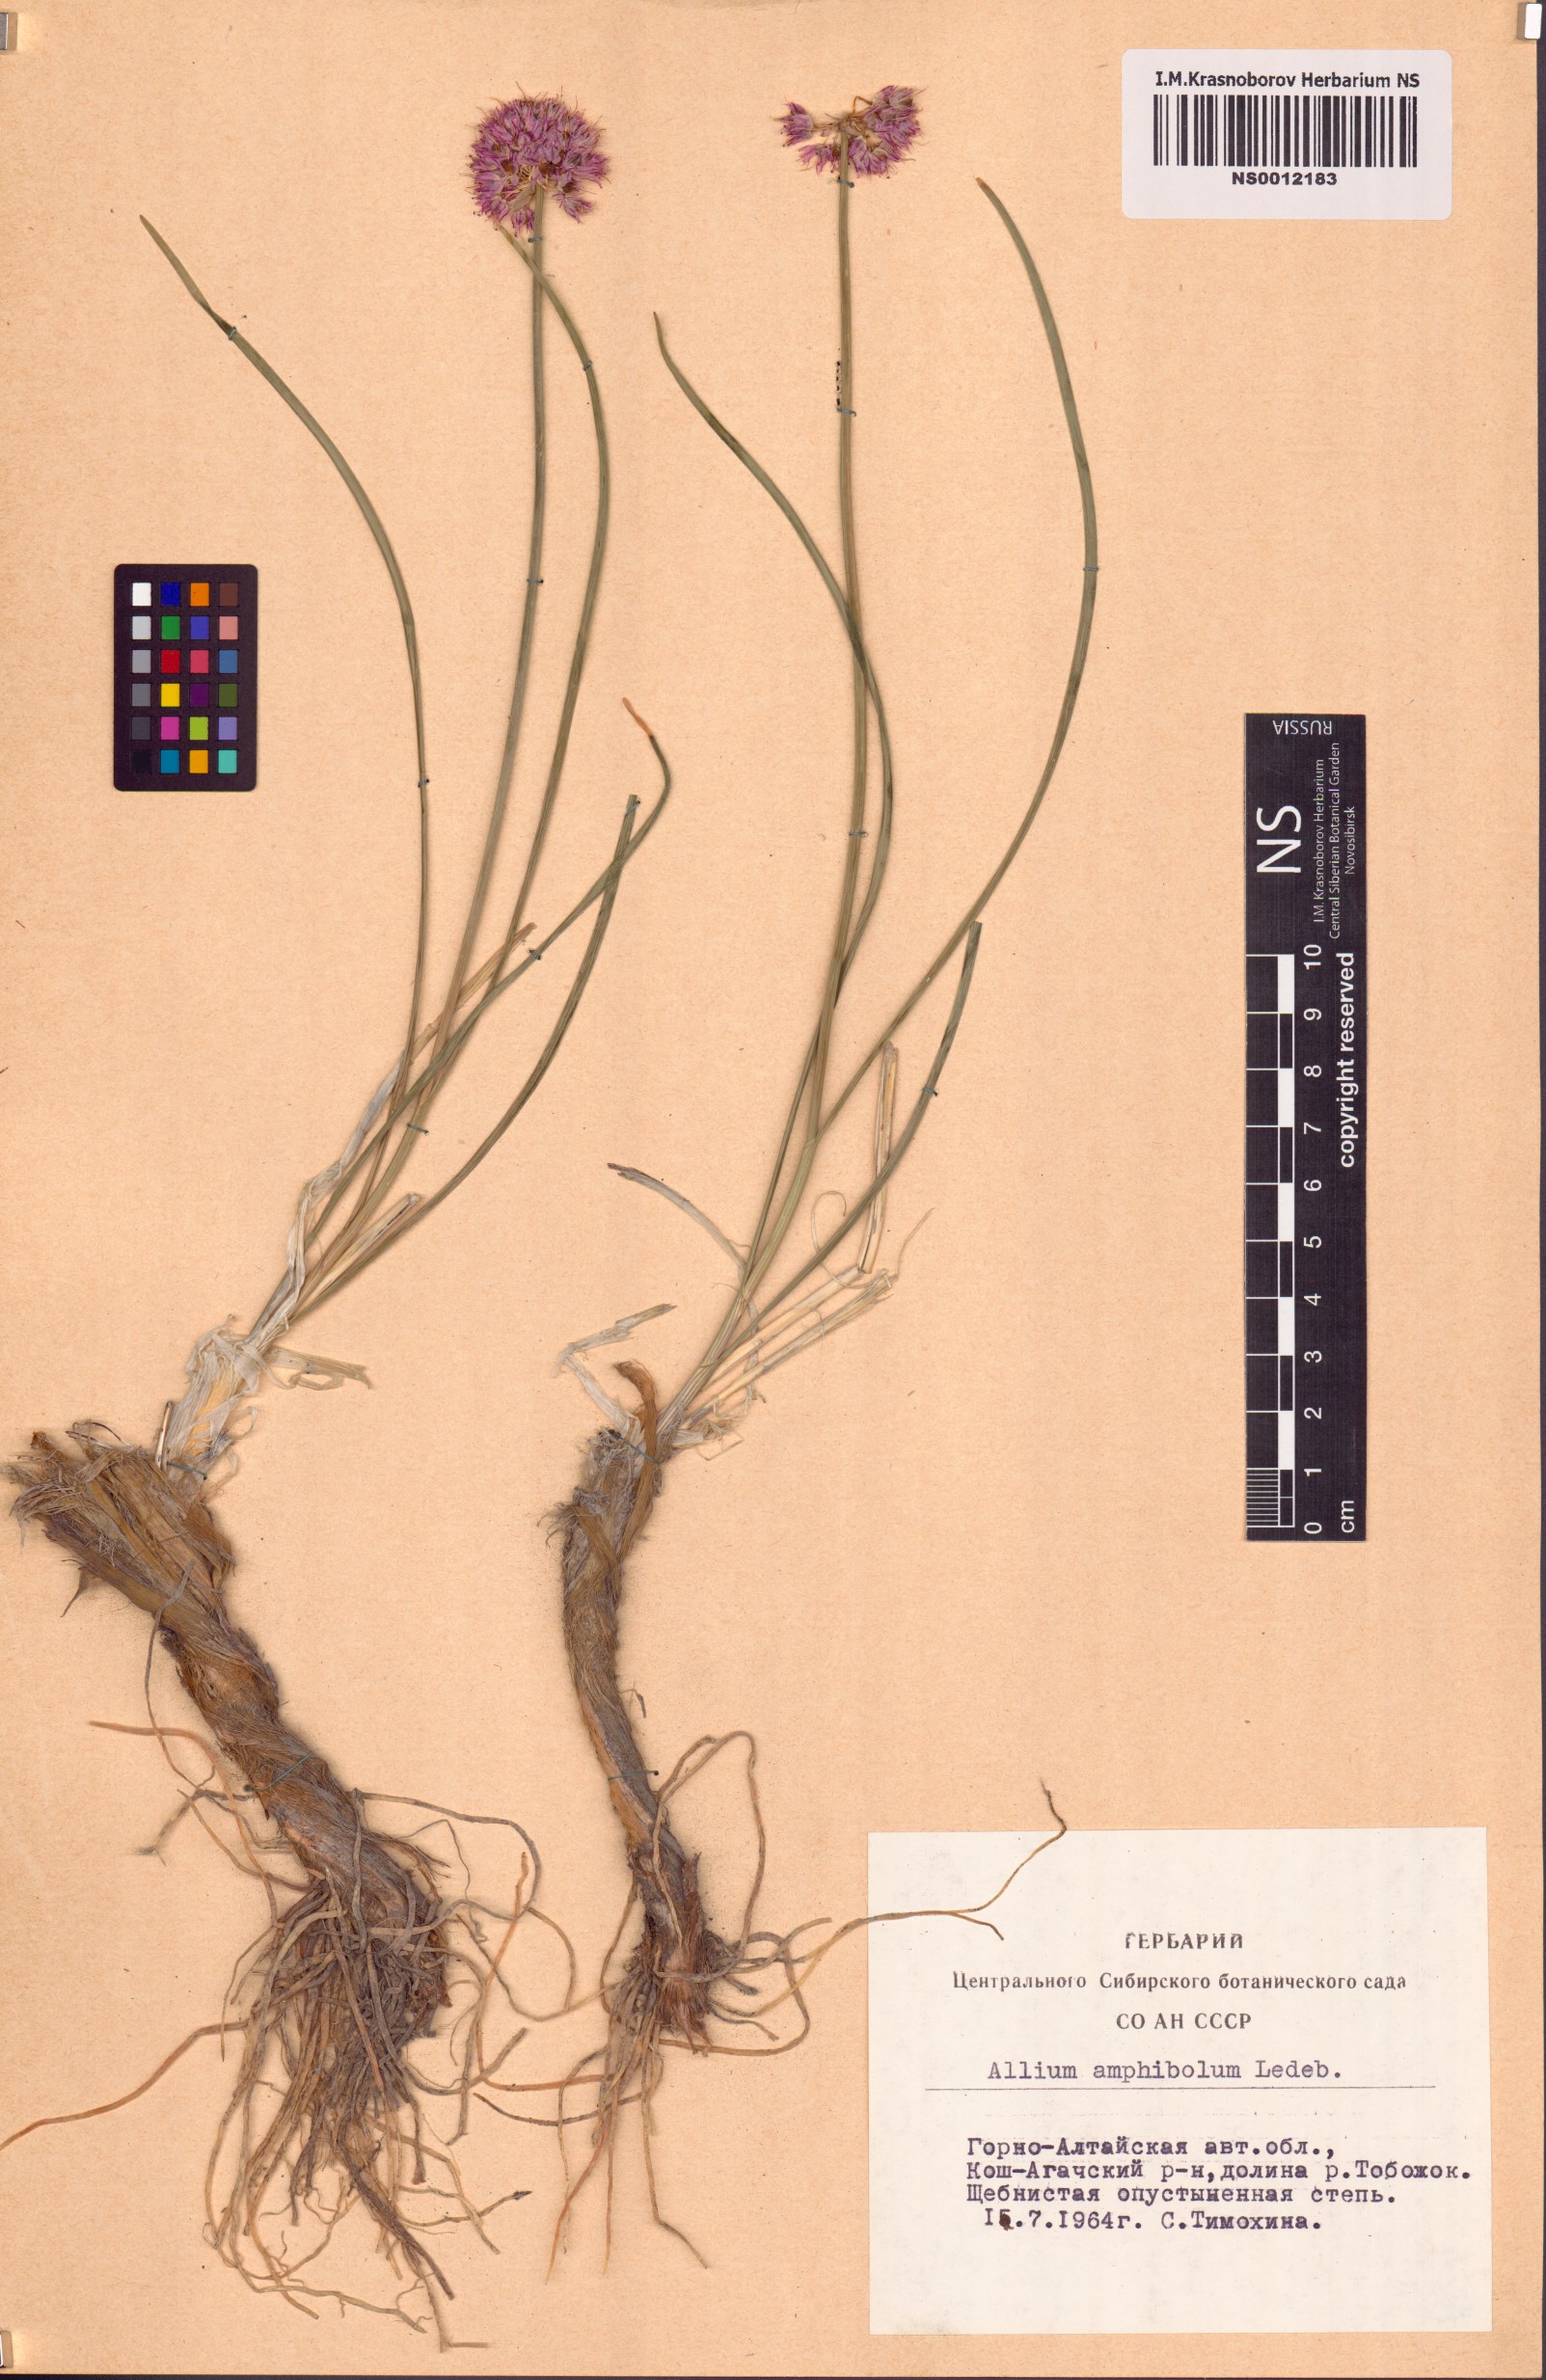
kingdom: Plantae
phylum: Tracheophyta
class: Liliopsida
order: Asparagales
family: Amaryllidaceae
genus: Allium
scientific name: Allium amphibolum
